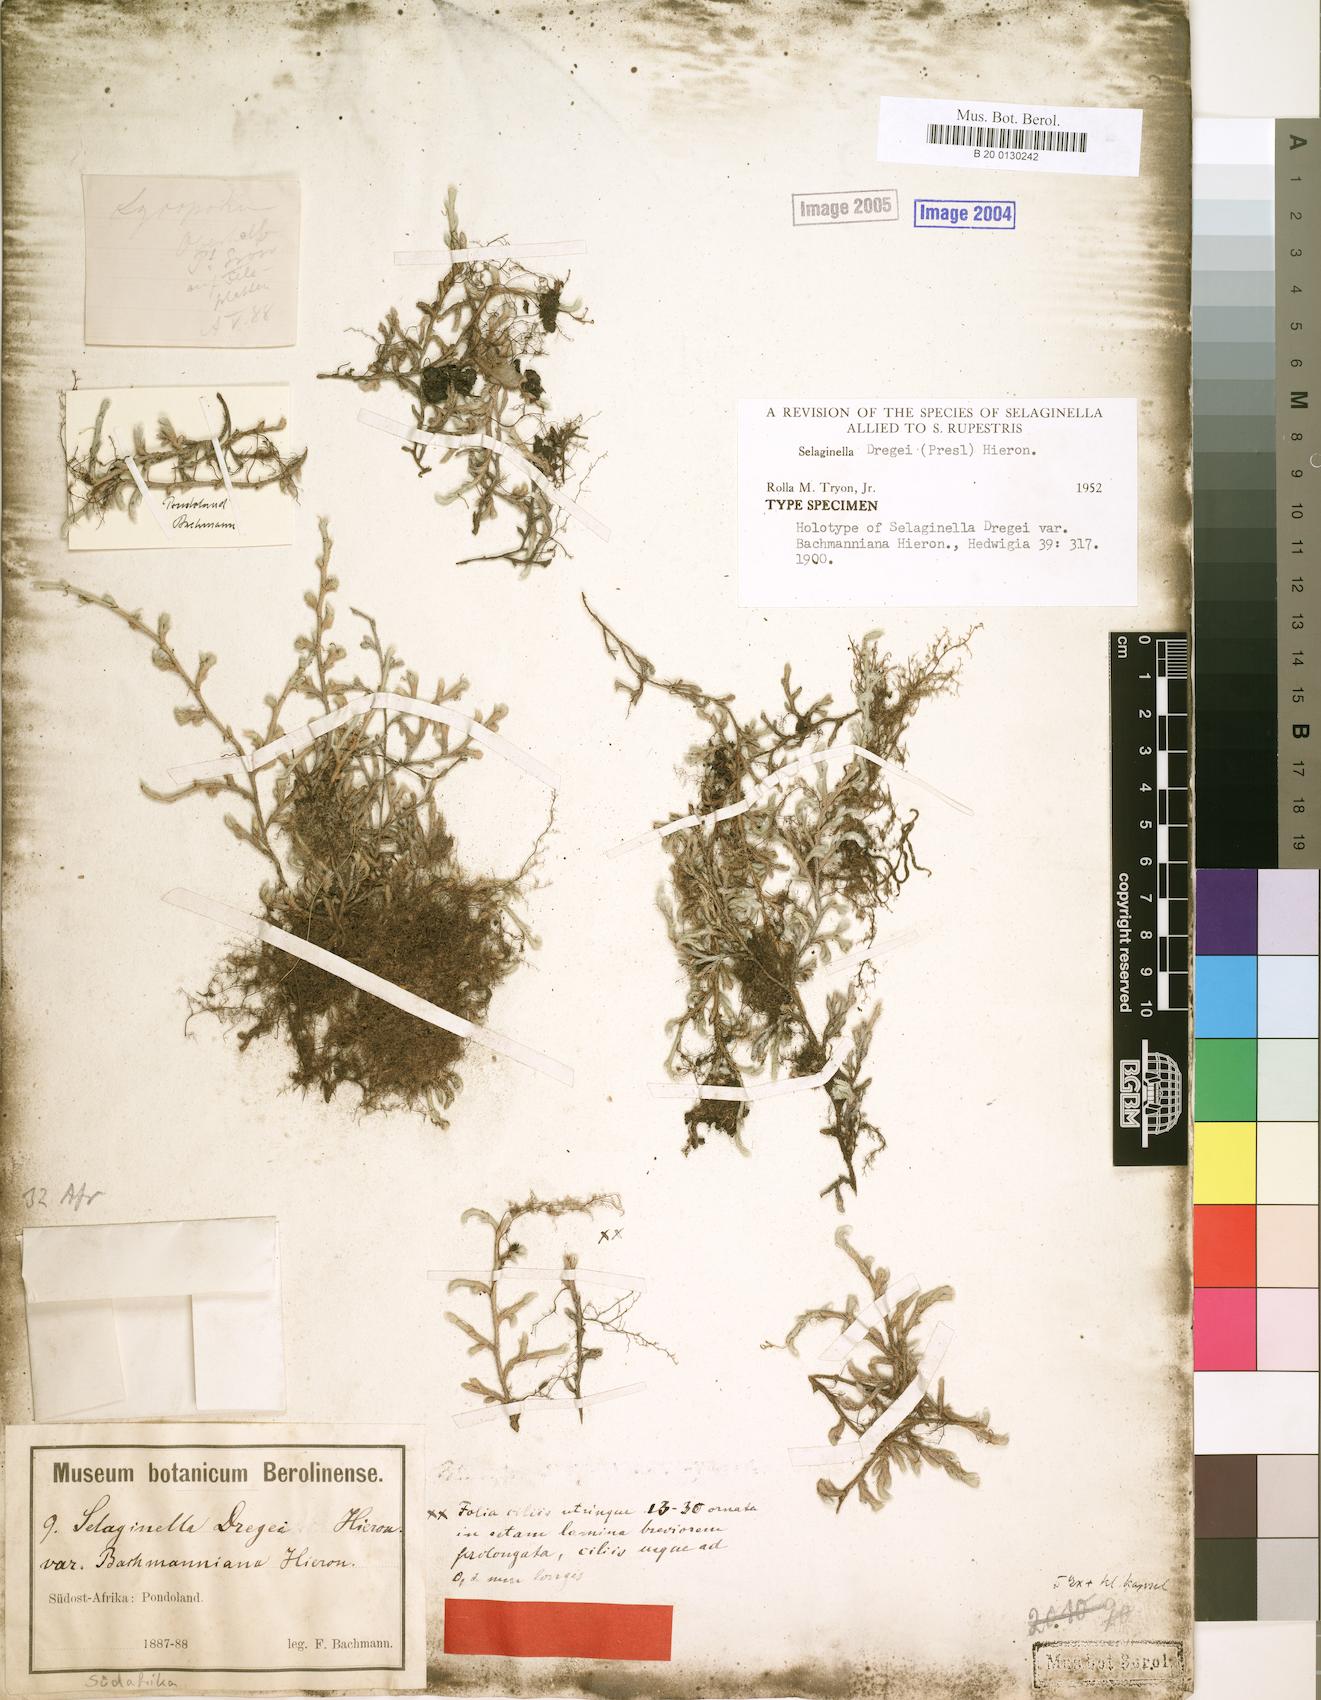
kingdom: Plantae
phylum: Tracheophyta
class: Lycopodiopsida
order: Selaginellales
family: Selaginellaceae
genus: Selaginella
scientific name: Selaginella dregei
